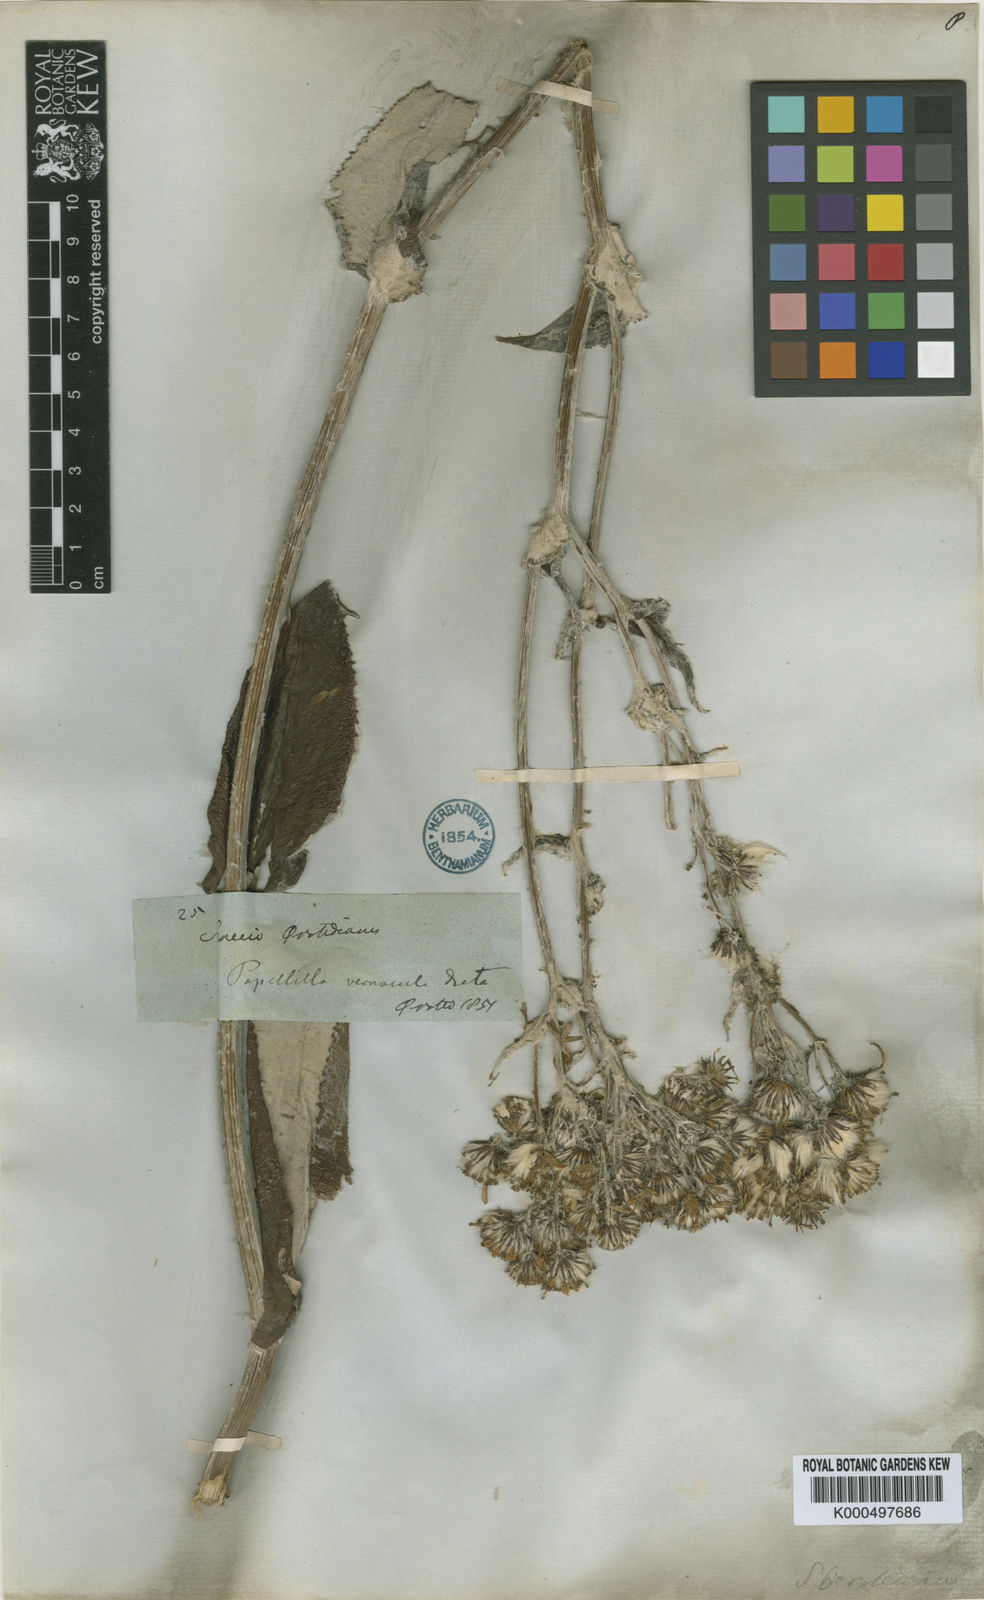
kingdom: Plantae
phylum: Tracheophyta
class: Magnoliopsida
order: Asterales
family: Asteraceae
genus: Senecio
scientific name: Senecio oerstedianus
